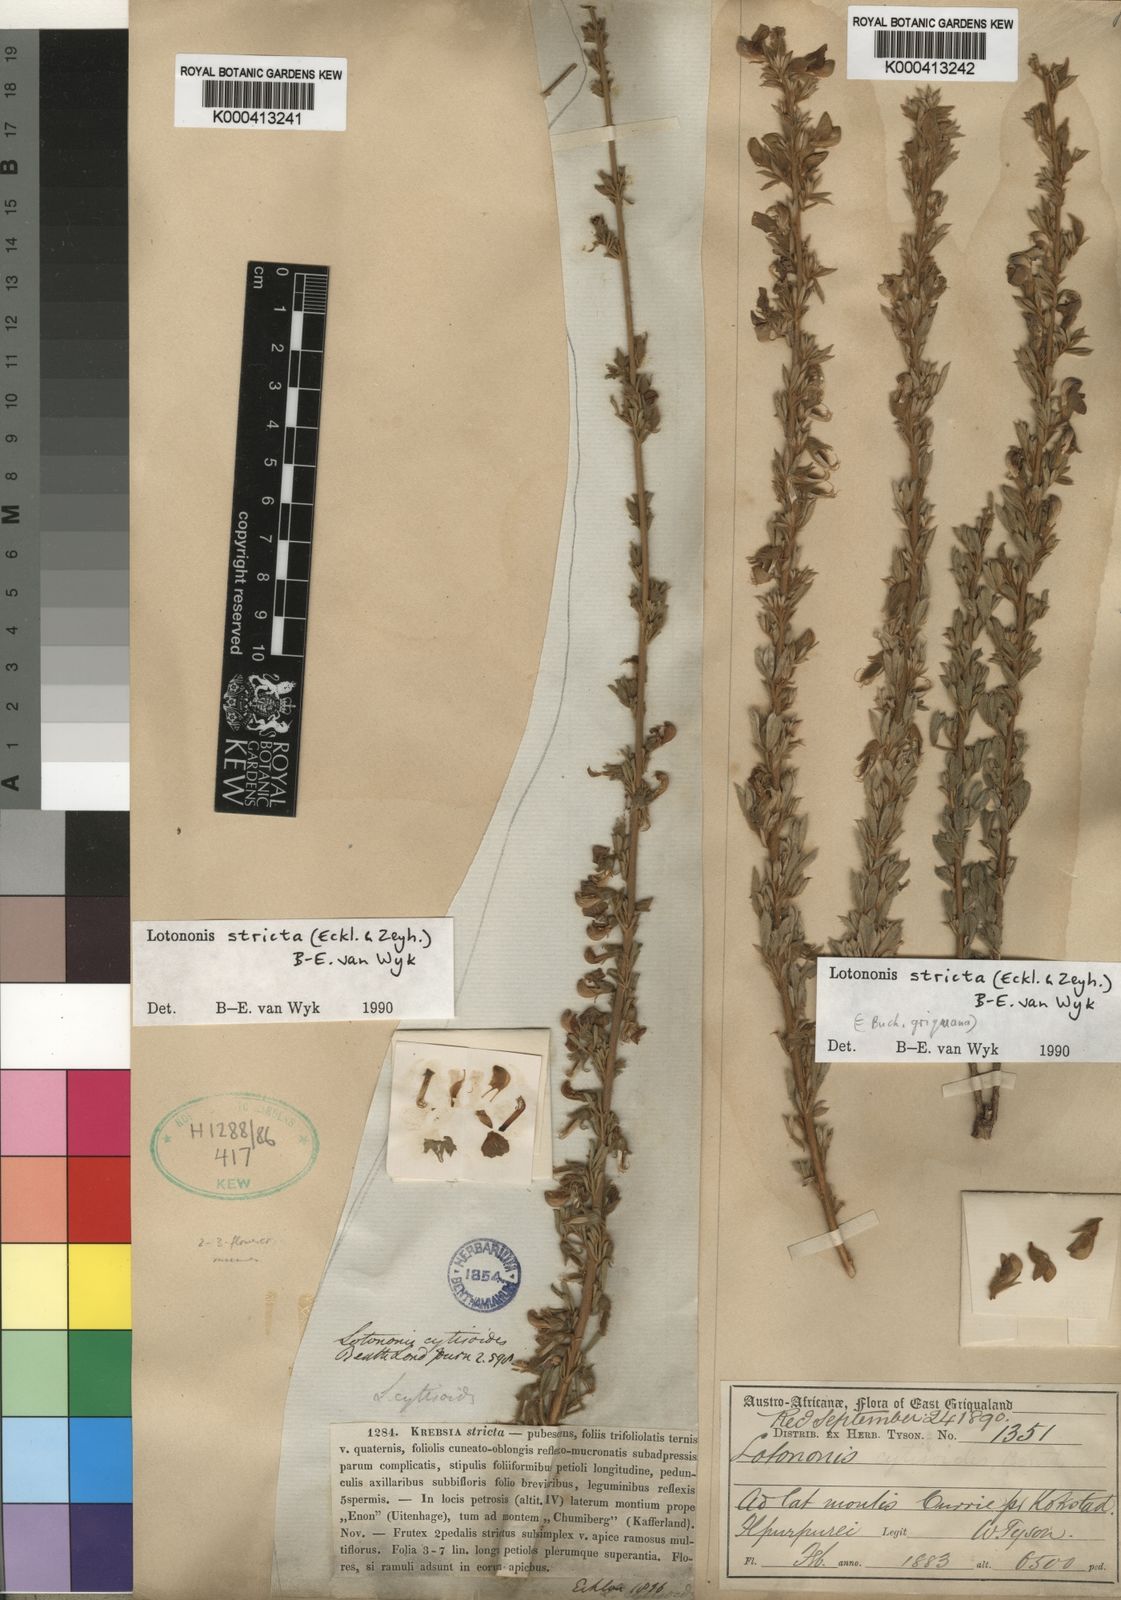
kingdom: Plantae
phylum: Tracheophyta
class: Magnoliopsida
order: Fabales
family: Fabaceae
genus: Lotononis
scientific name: Lotononis stricta
